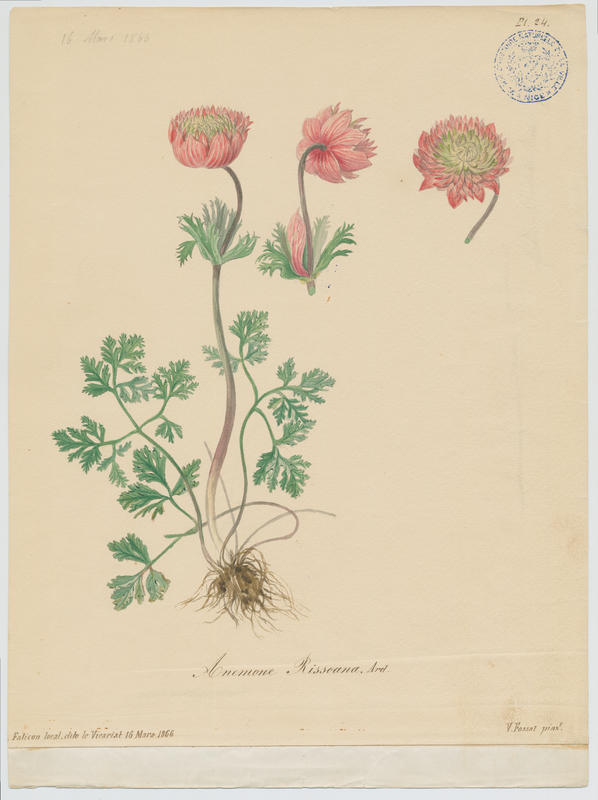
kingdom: Plantae
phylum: Tracheophyta
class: Magnoliopsida
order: Ranunculales
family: Ranunculaceae
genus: Anemone
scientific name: Anemone coronaria
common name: Poppy anemone
